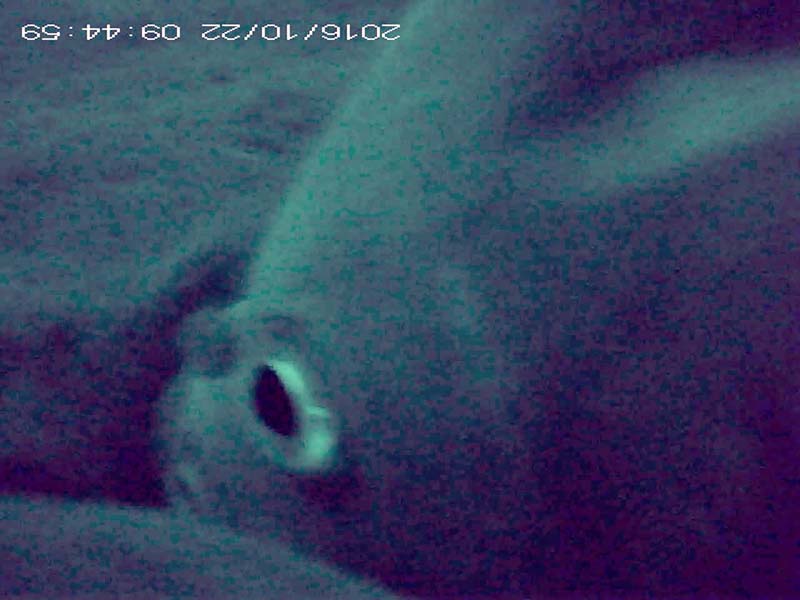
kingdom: Animalia
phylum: Chordata
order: Cypriniformes
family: Cyprinidae
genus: Cyprinus
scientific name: Cyprinus carpio
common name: コイ
